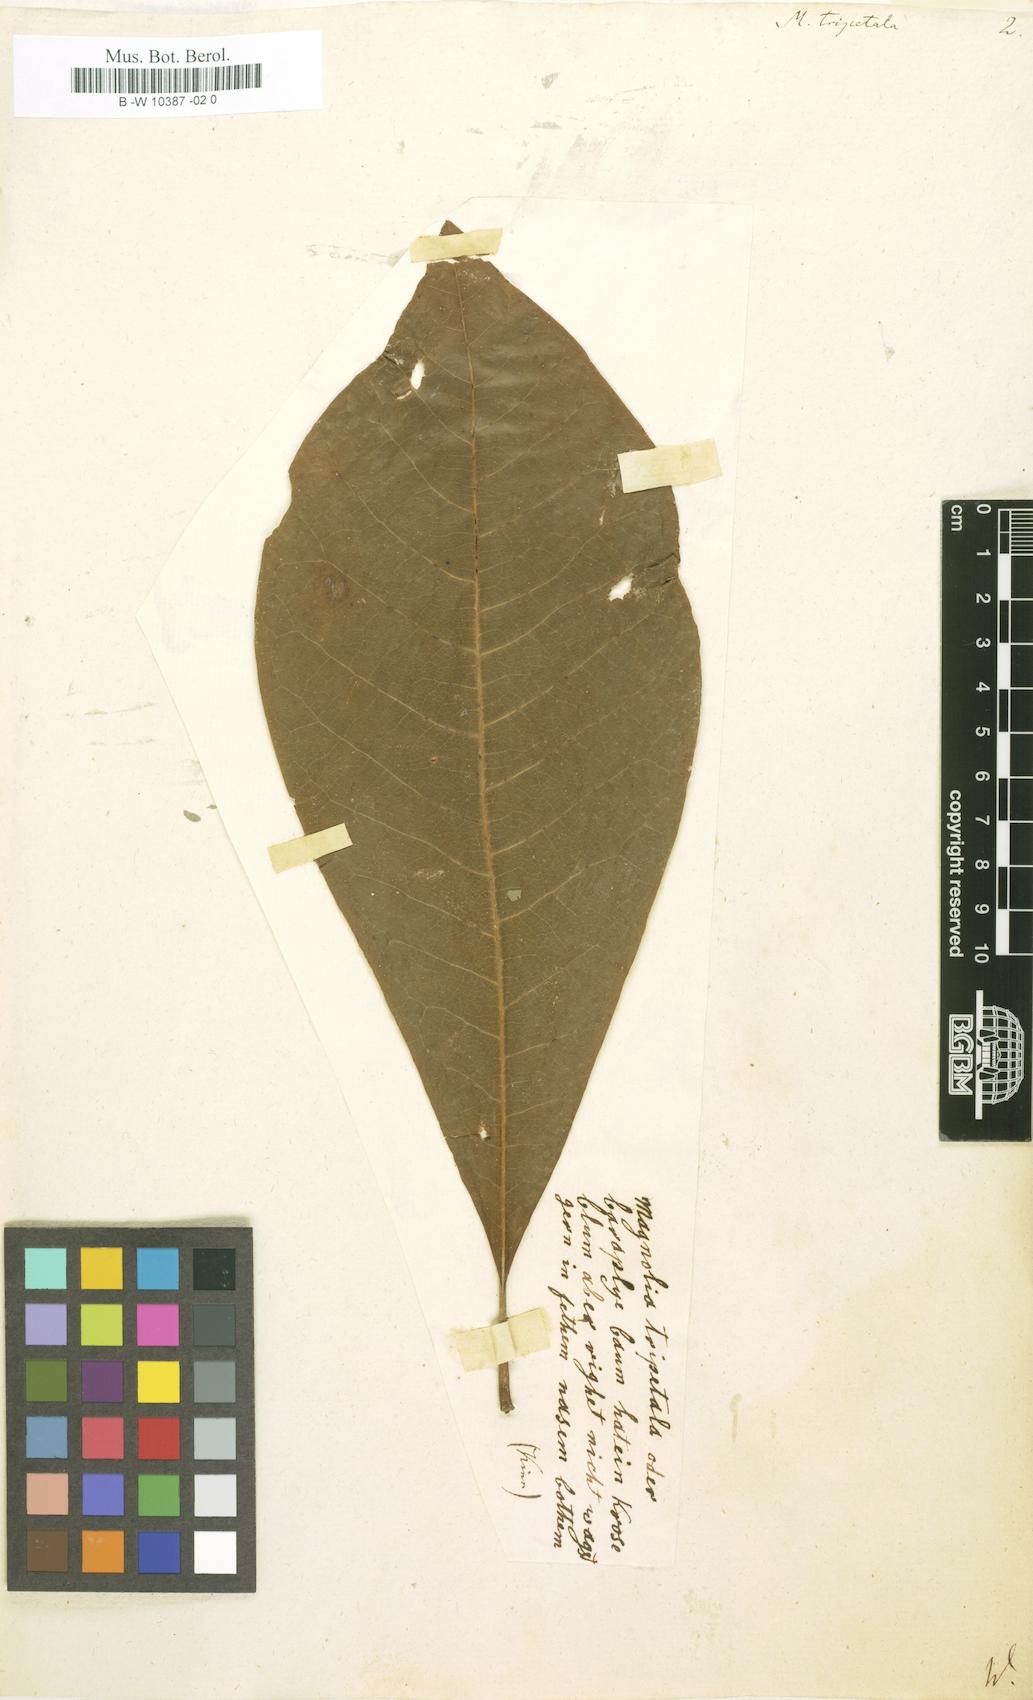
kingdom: Plantae
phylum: Tracheophyta
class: Magnoliopsida
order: Magnoliales
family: Magnoliaceae
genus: Magnolia
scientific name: Magnolia tripetala
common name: Umbrella magnolia
